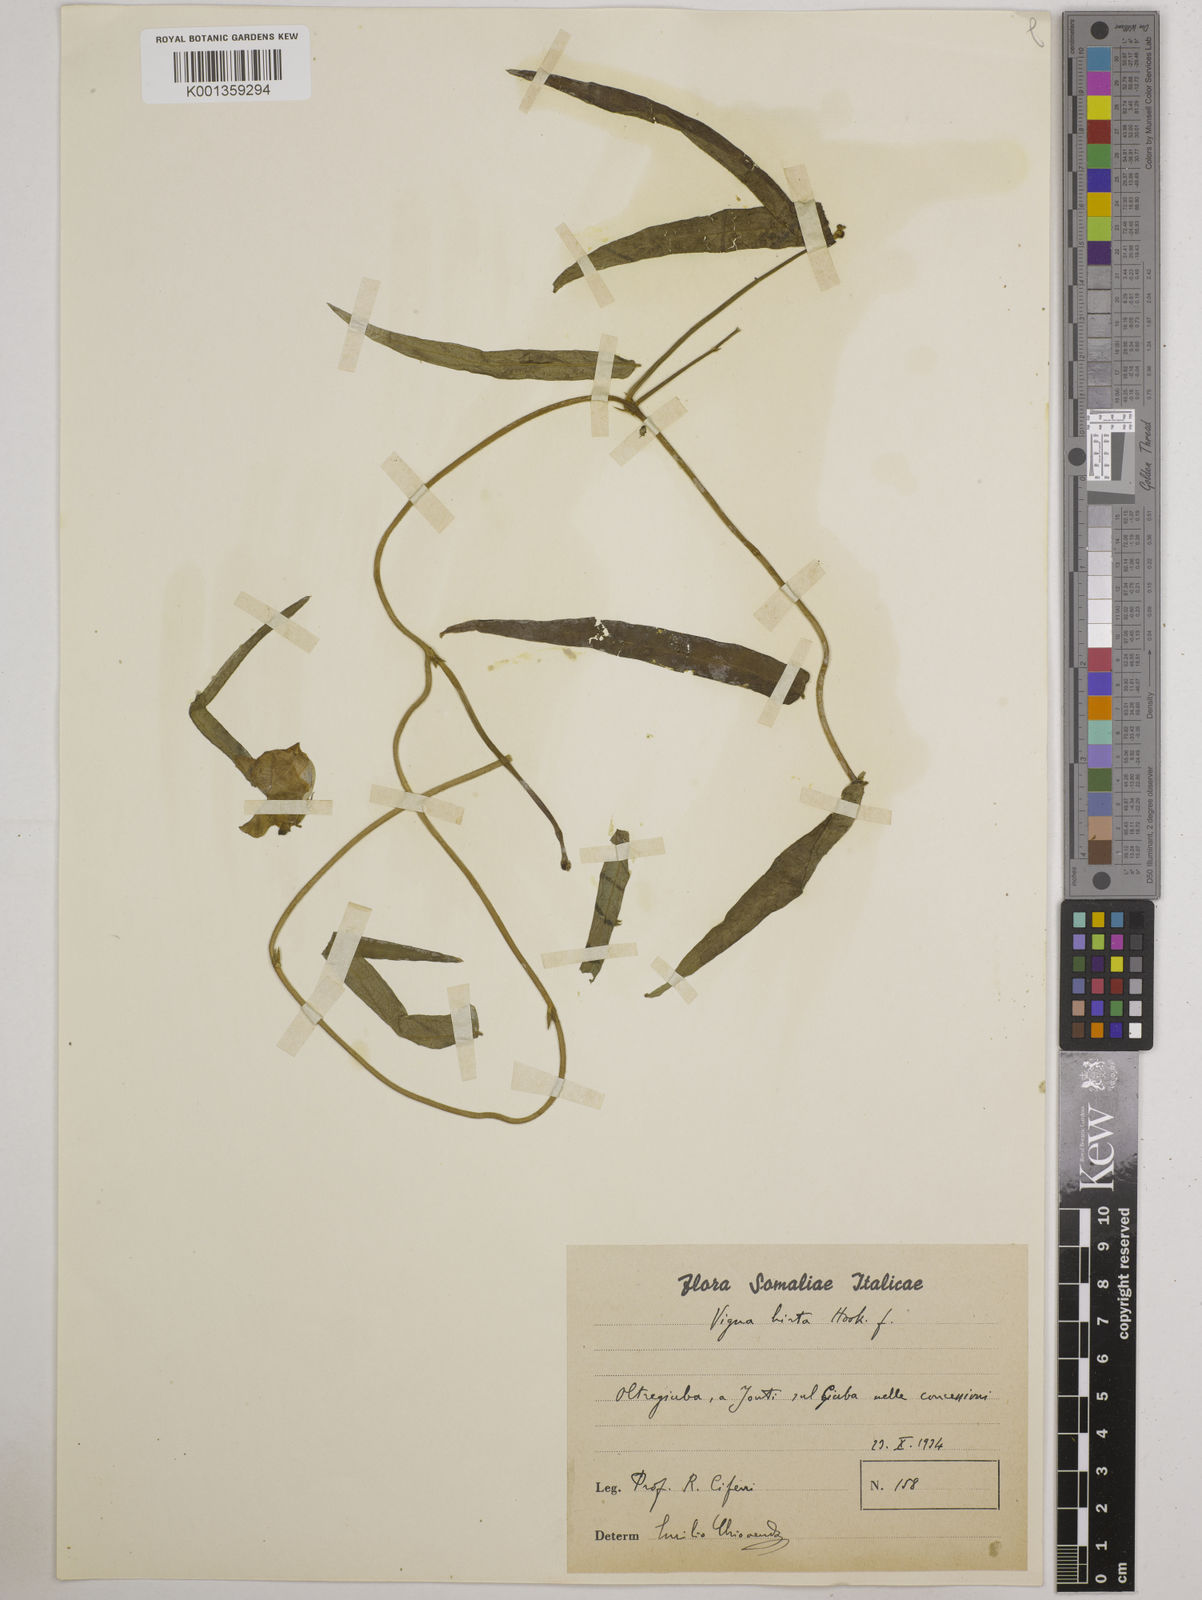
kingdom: Plantae
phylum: Tracheophyta
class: Magnoliopsida
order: Fabales
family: Fabaceae
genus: Vigna
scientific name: Vigna
